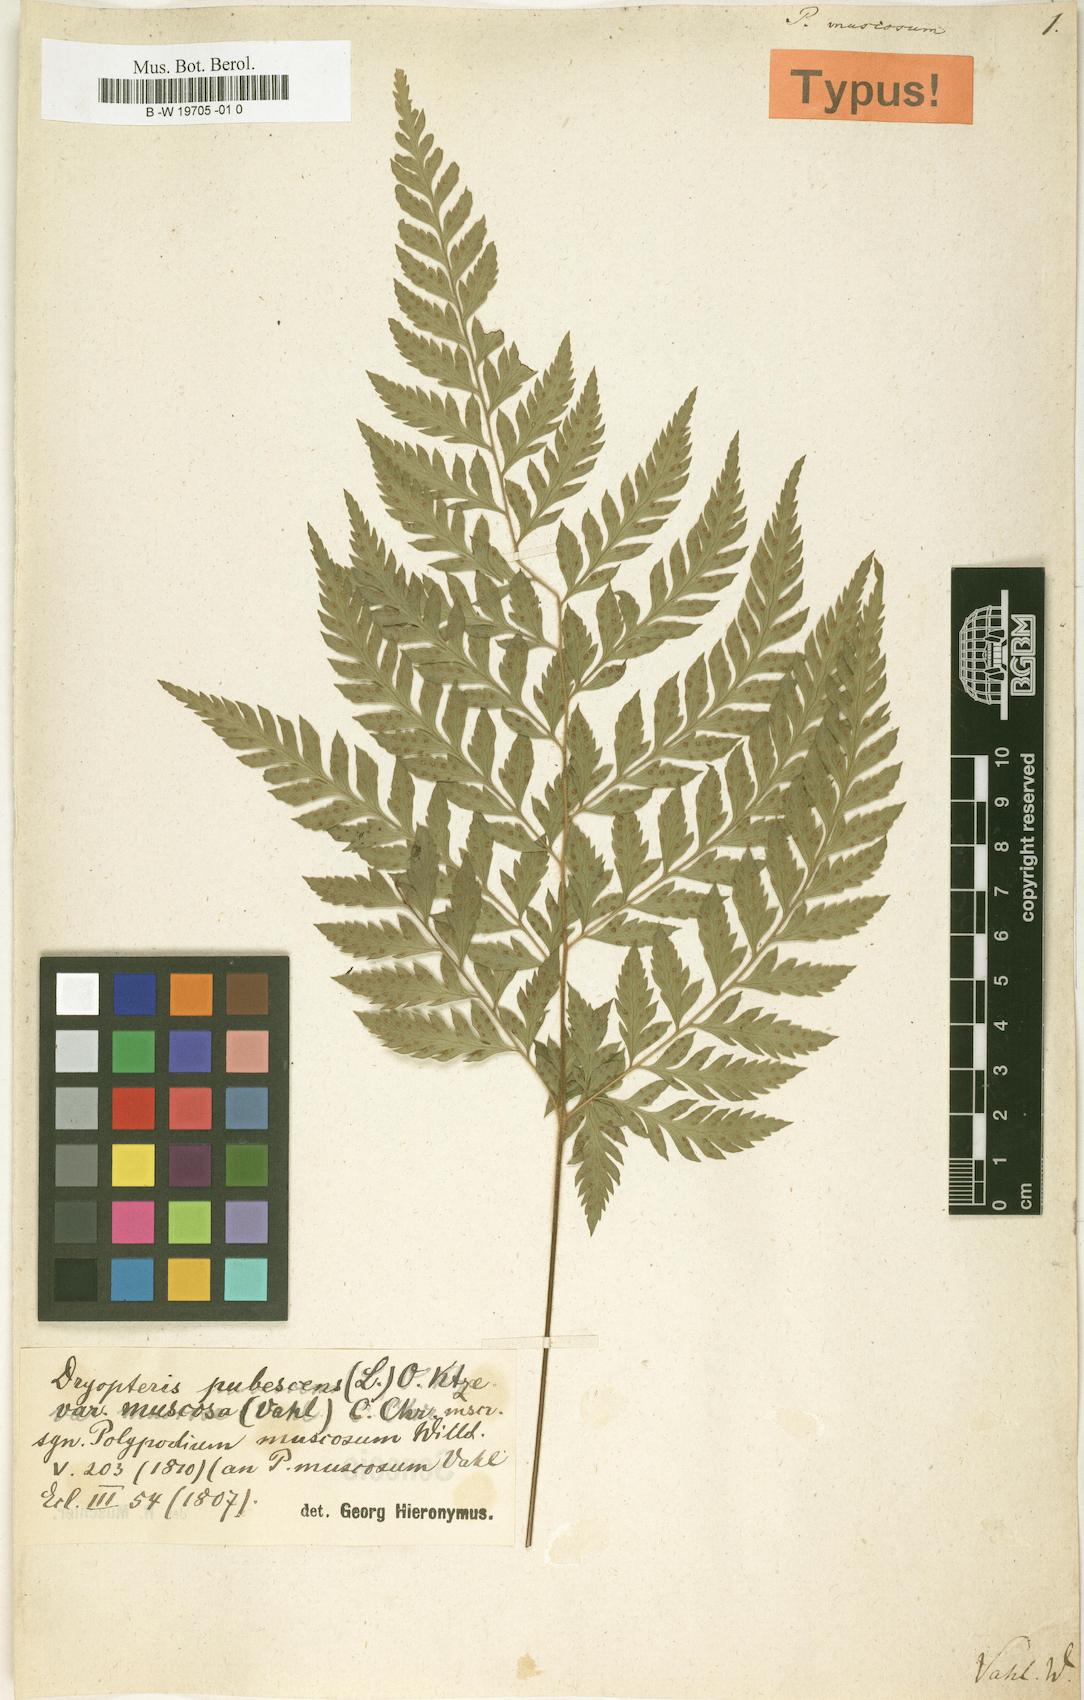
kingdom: Plantae
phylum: Tracheophyta
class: Polypodiopsida
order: Polypodiales
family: Polypodiaceae
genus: Polypodium
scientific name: Polypodium muscosum
